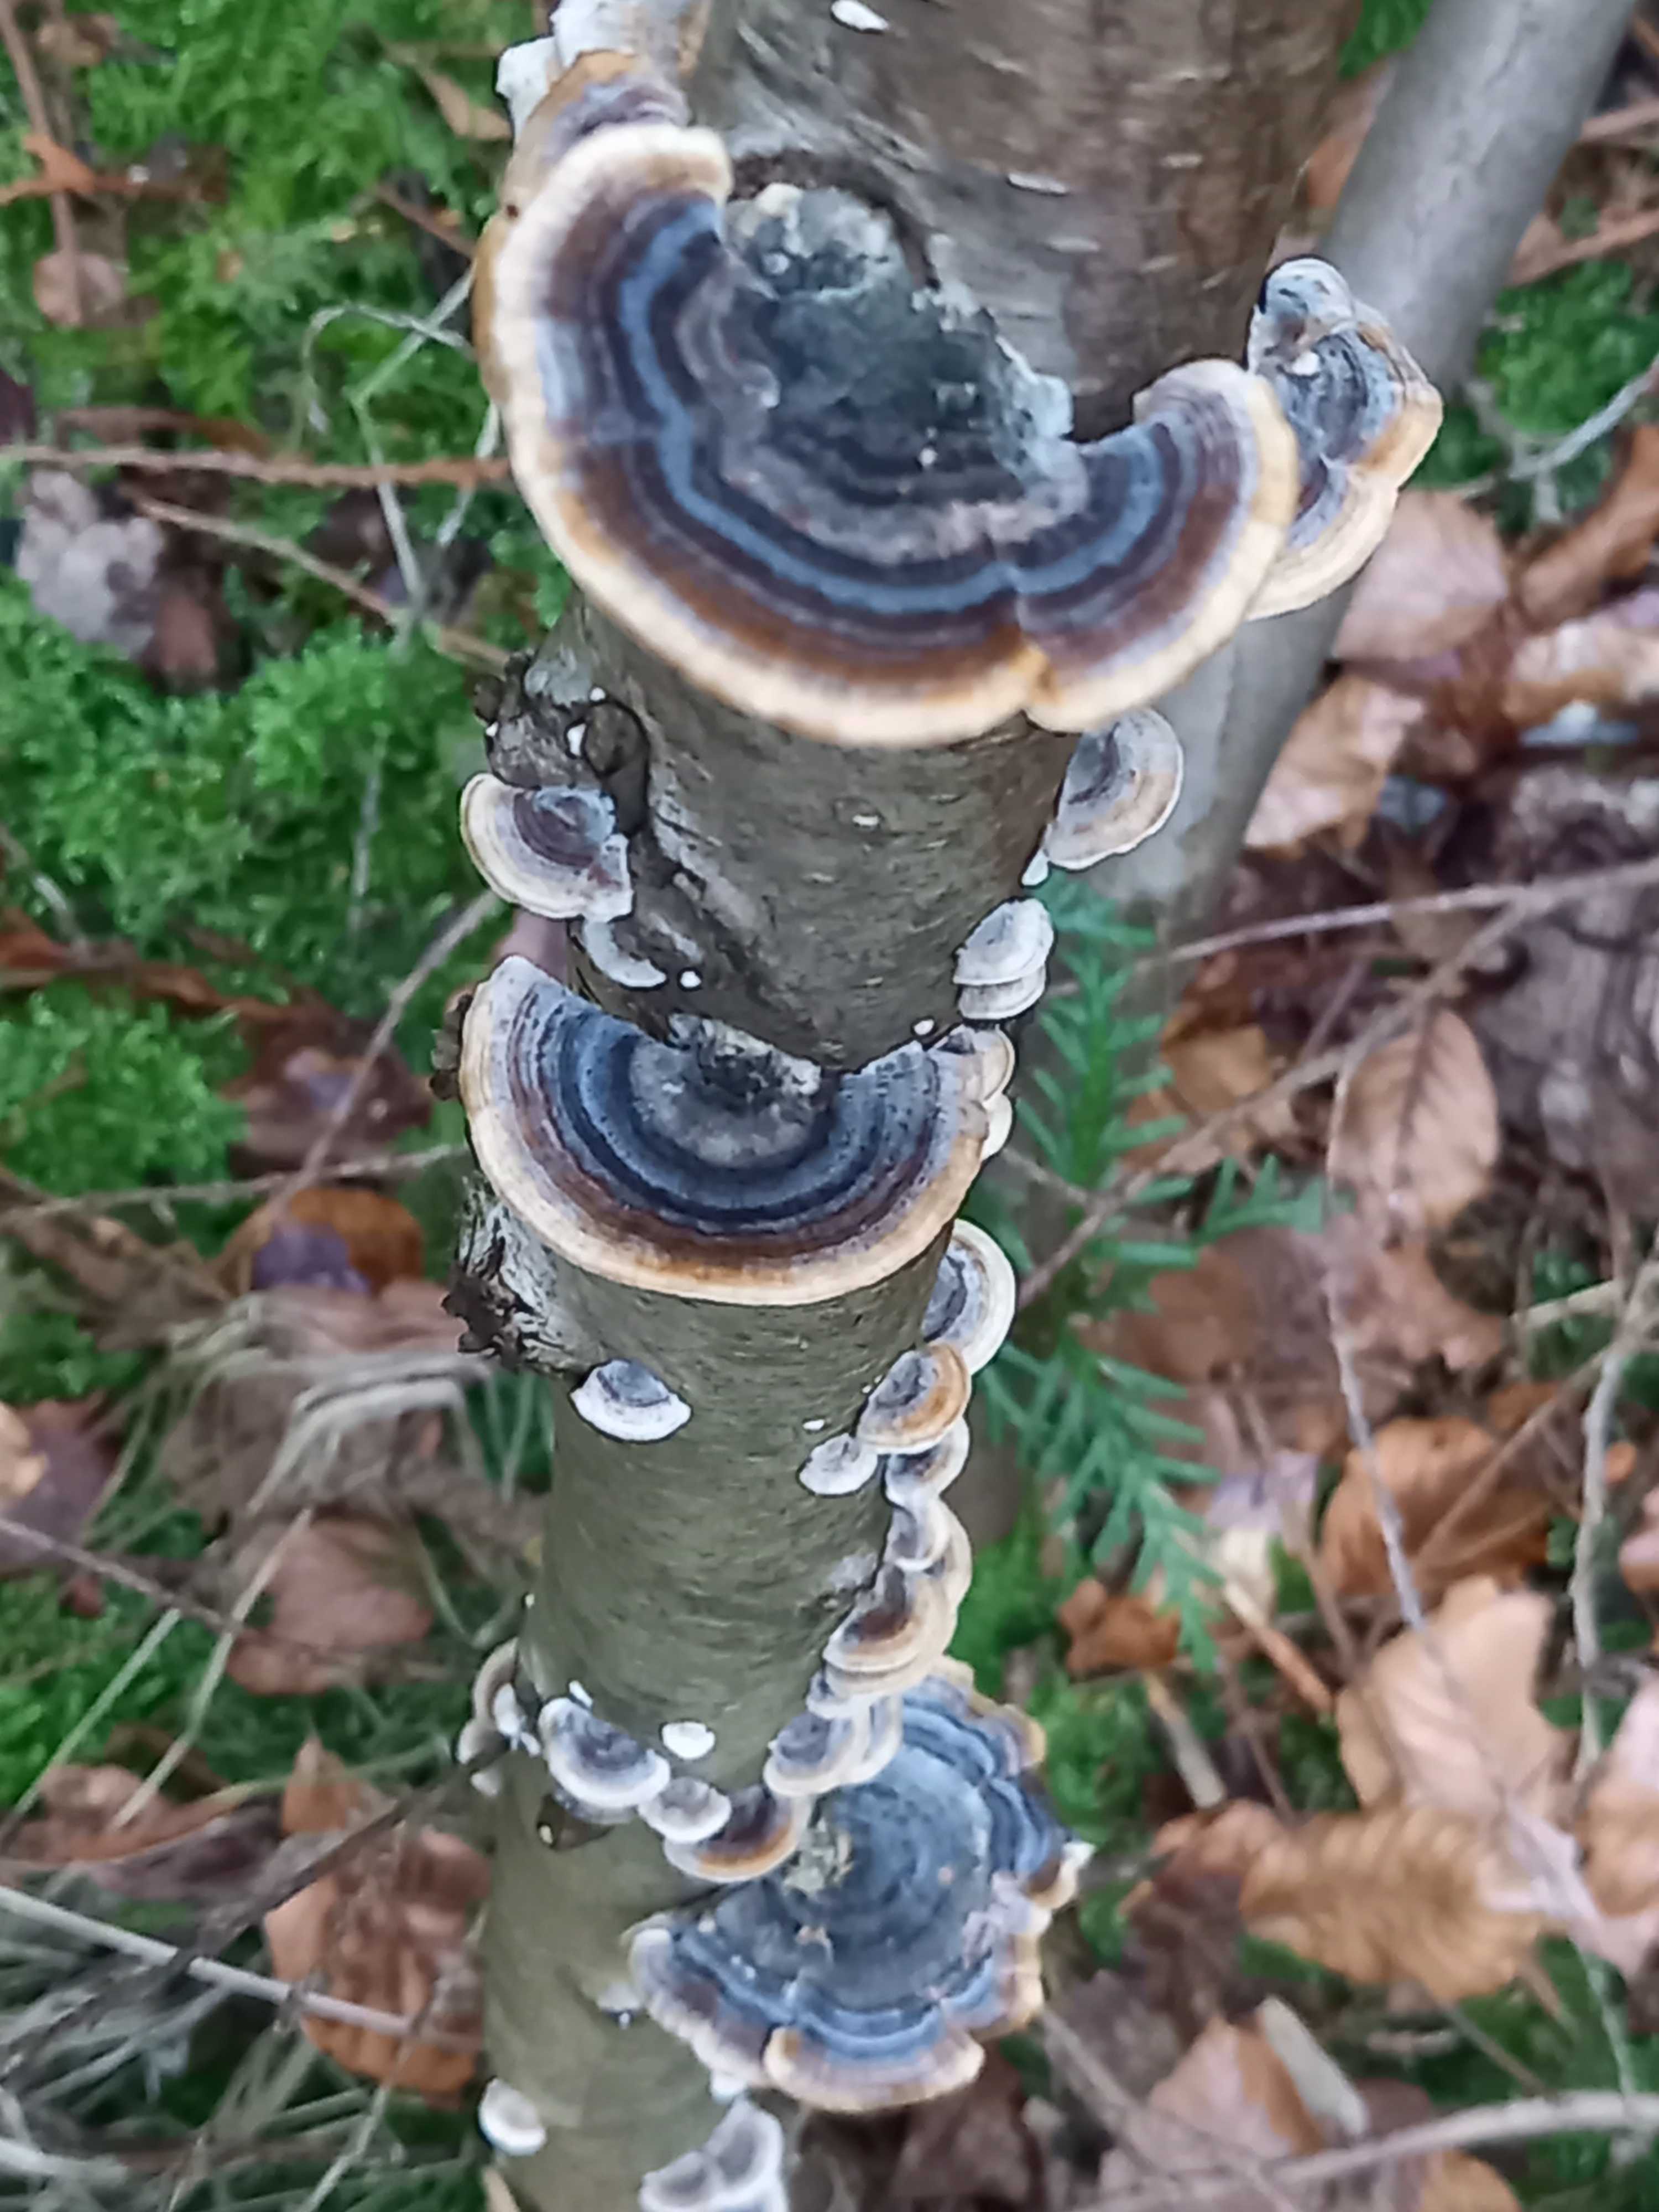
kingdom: Fungi
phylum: Basidiomycota
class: Agaricomycetes
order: Polyporales
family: Polyporaceae
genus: Trametes
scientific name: Trametes versicolor
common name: broget læderporesvamp
